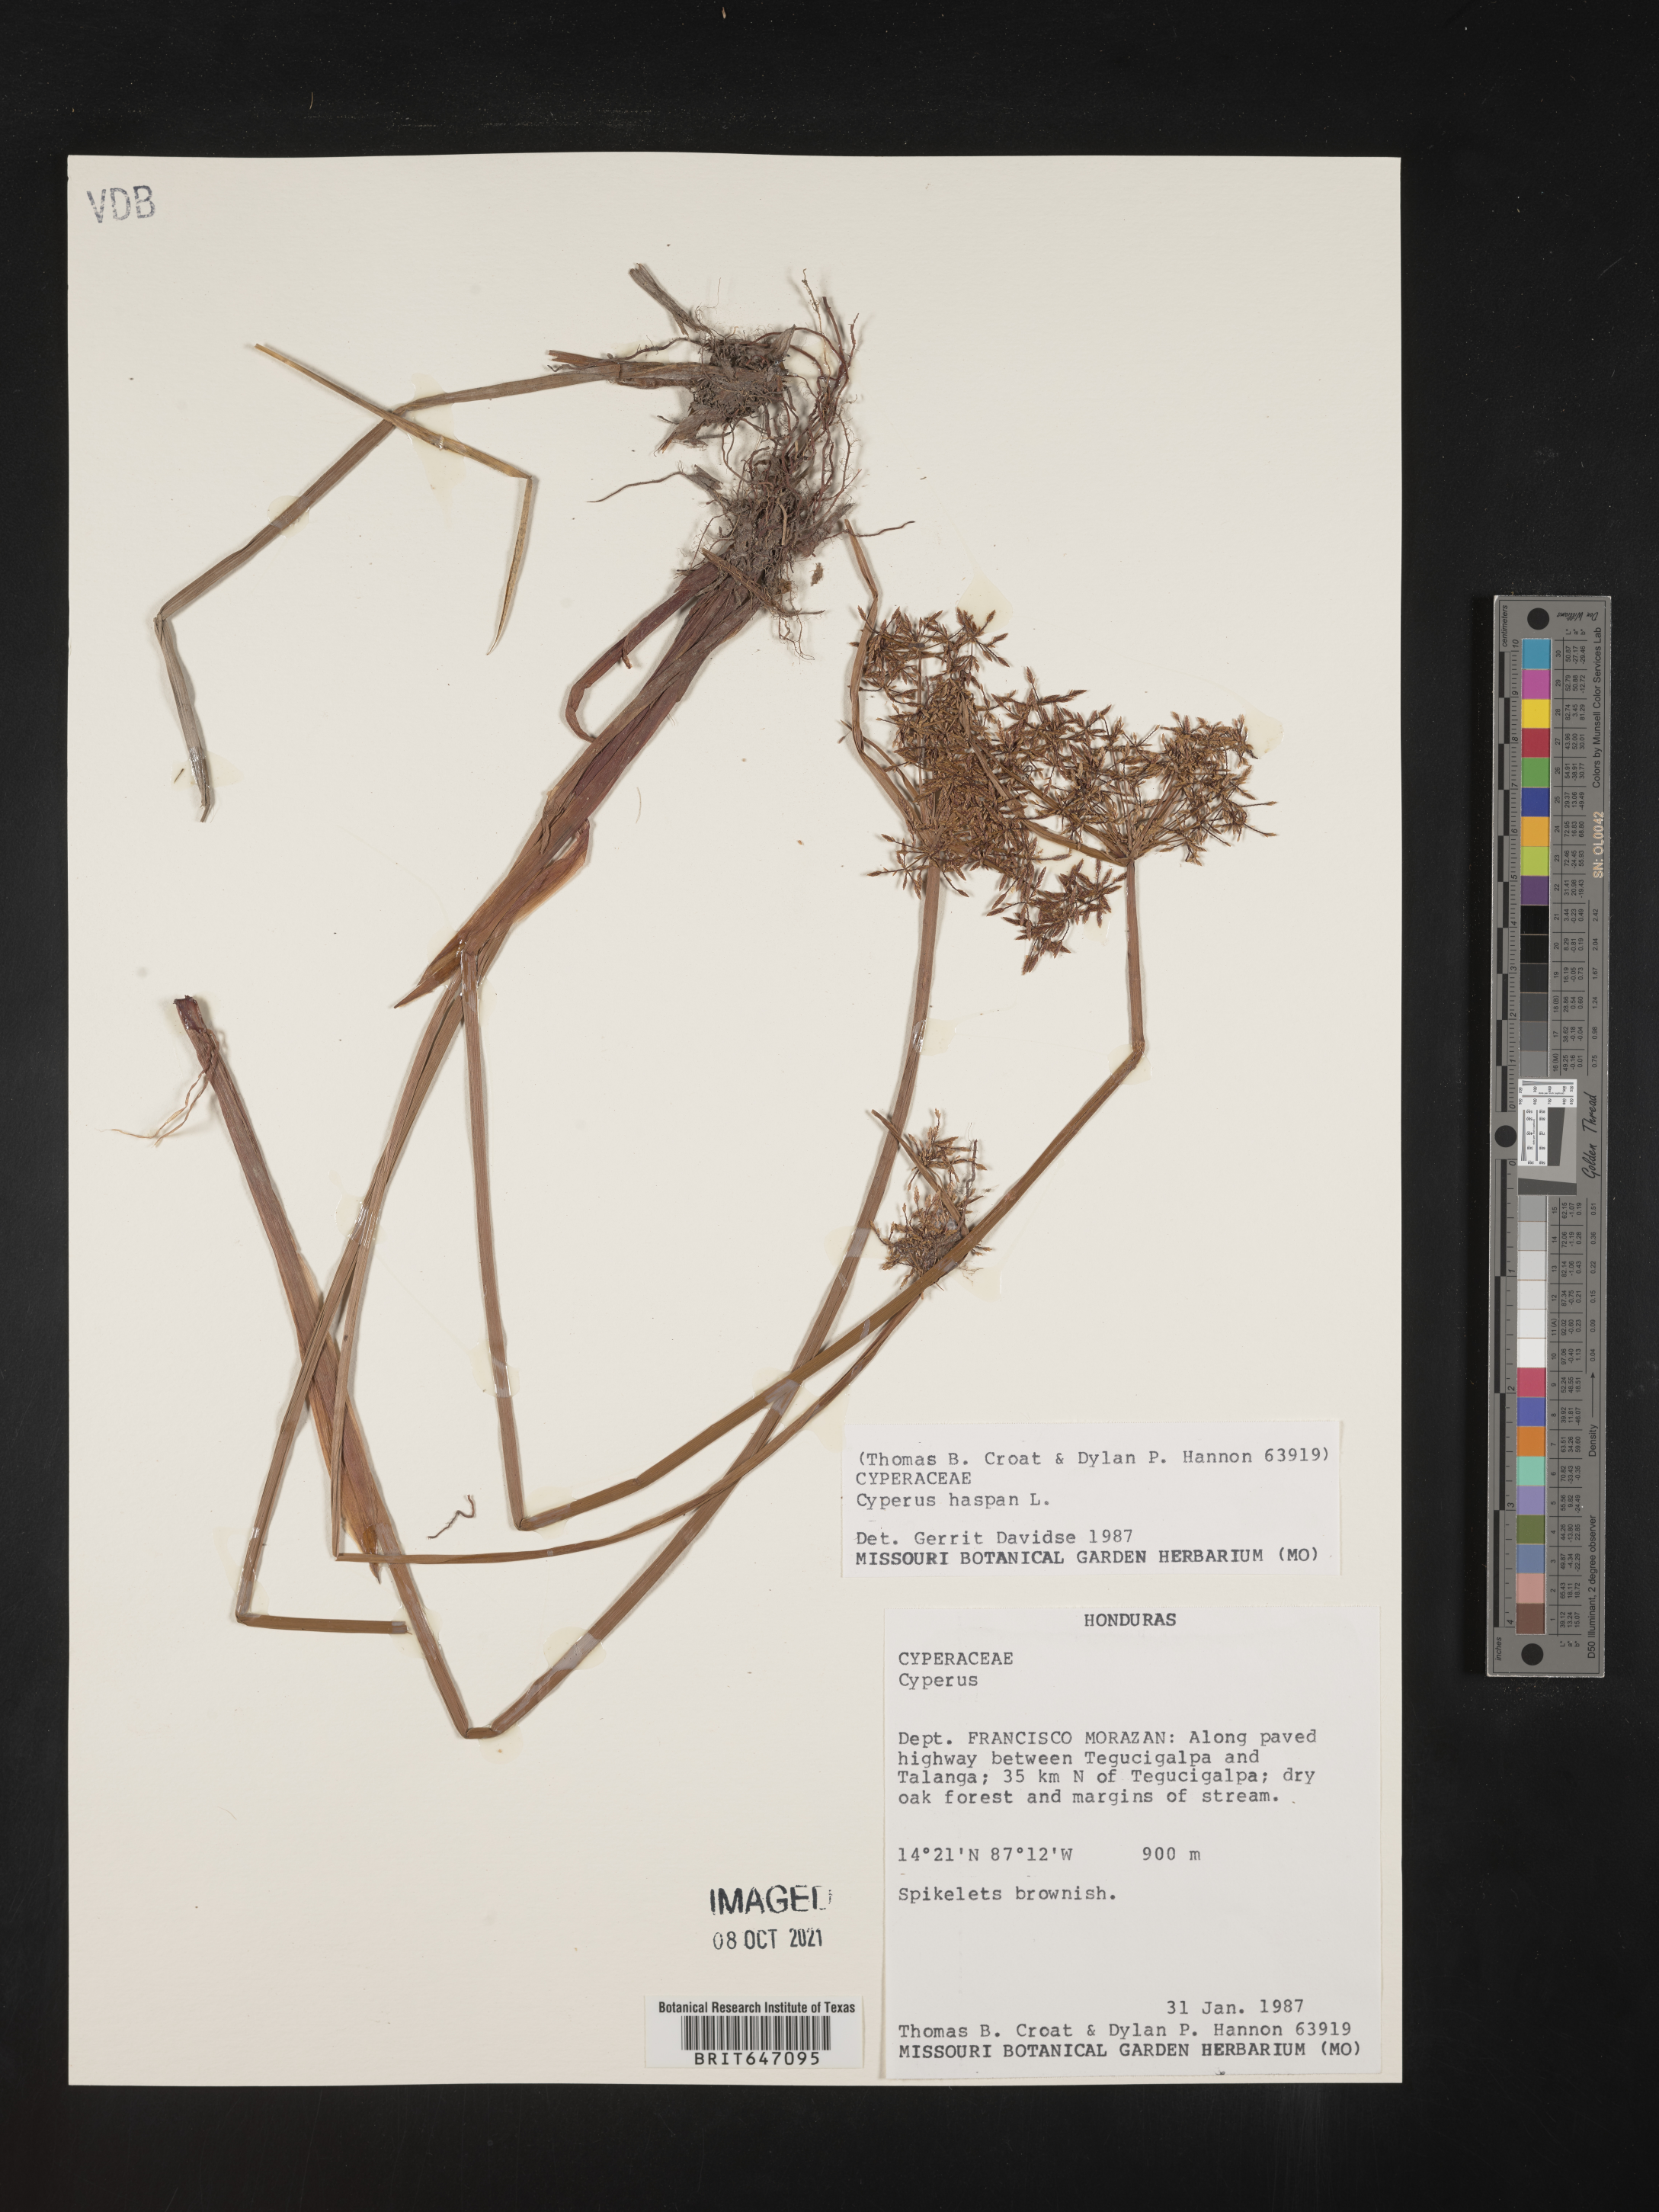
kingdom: Plantae
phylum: Tracheophyta
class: Liliopsida
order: Poales
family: Cyperaceae
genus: Cyperus
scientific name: Cyperus haspan
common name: Haspan flatsedge
